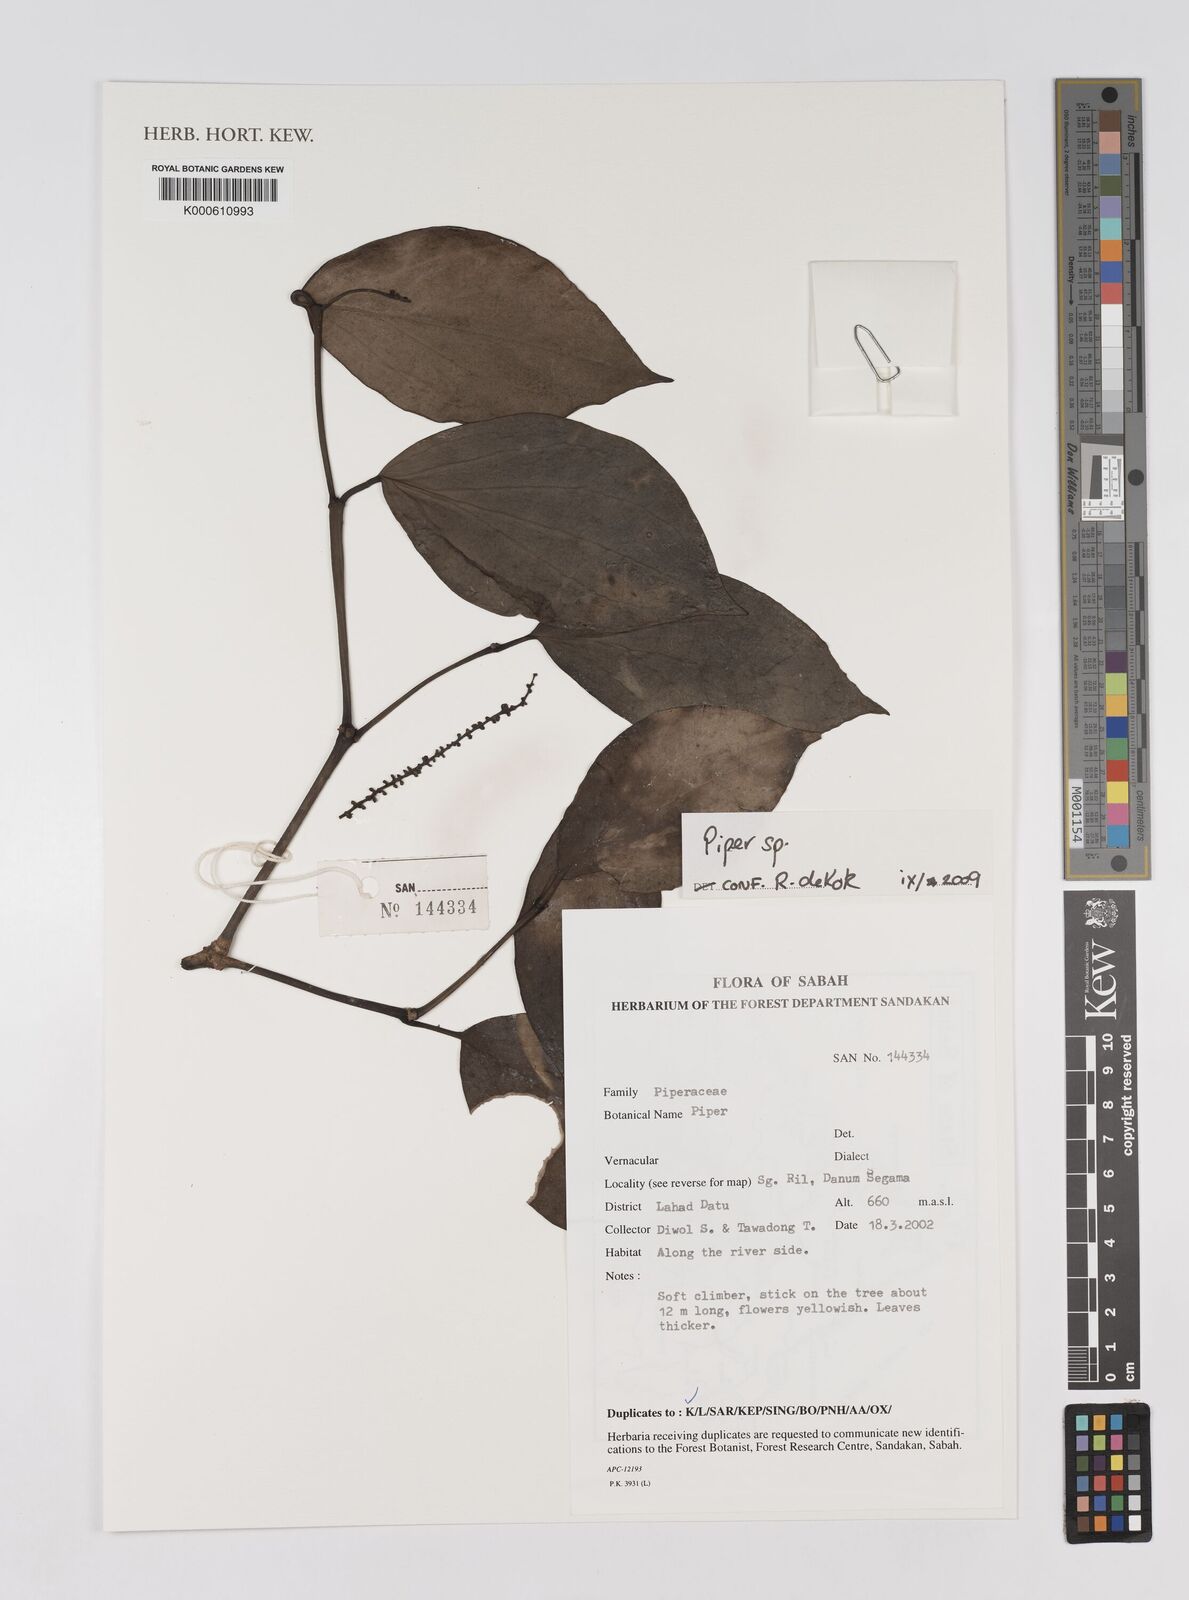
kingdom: Plantae
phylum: Tracheophyta
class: Magnoliopsida
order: Piperales
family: Piperaceae
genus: Piper
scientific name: Piper
